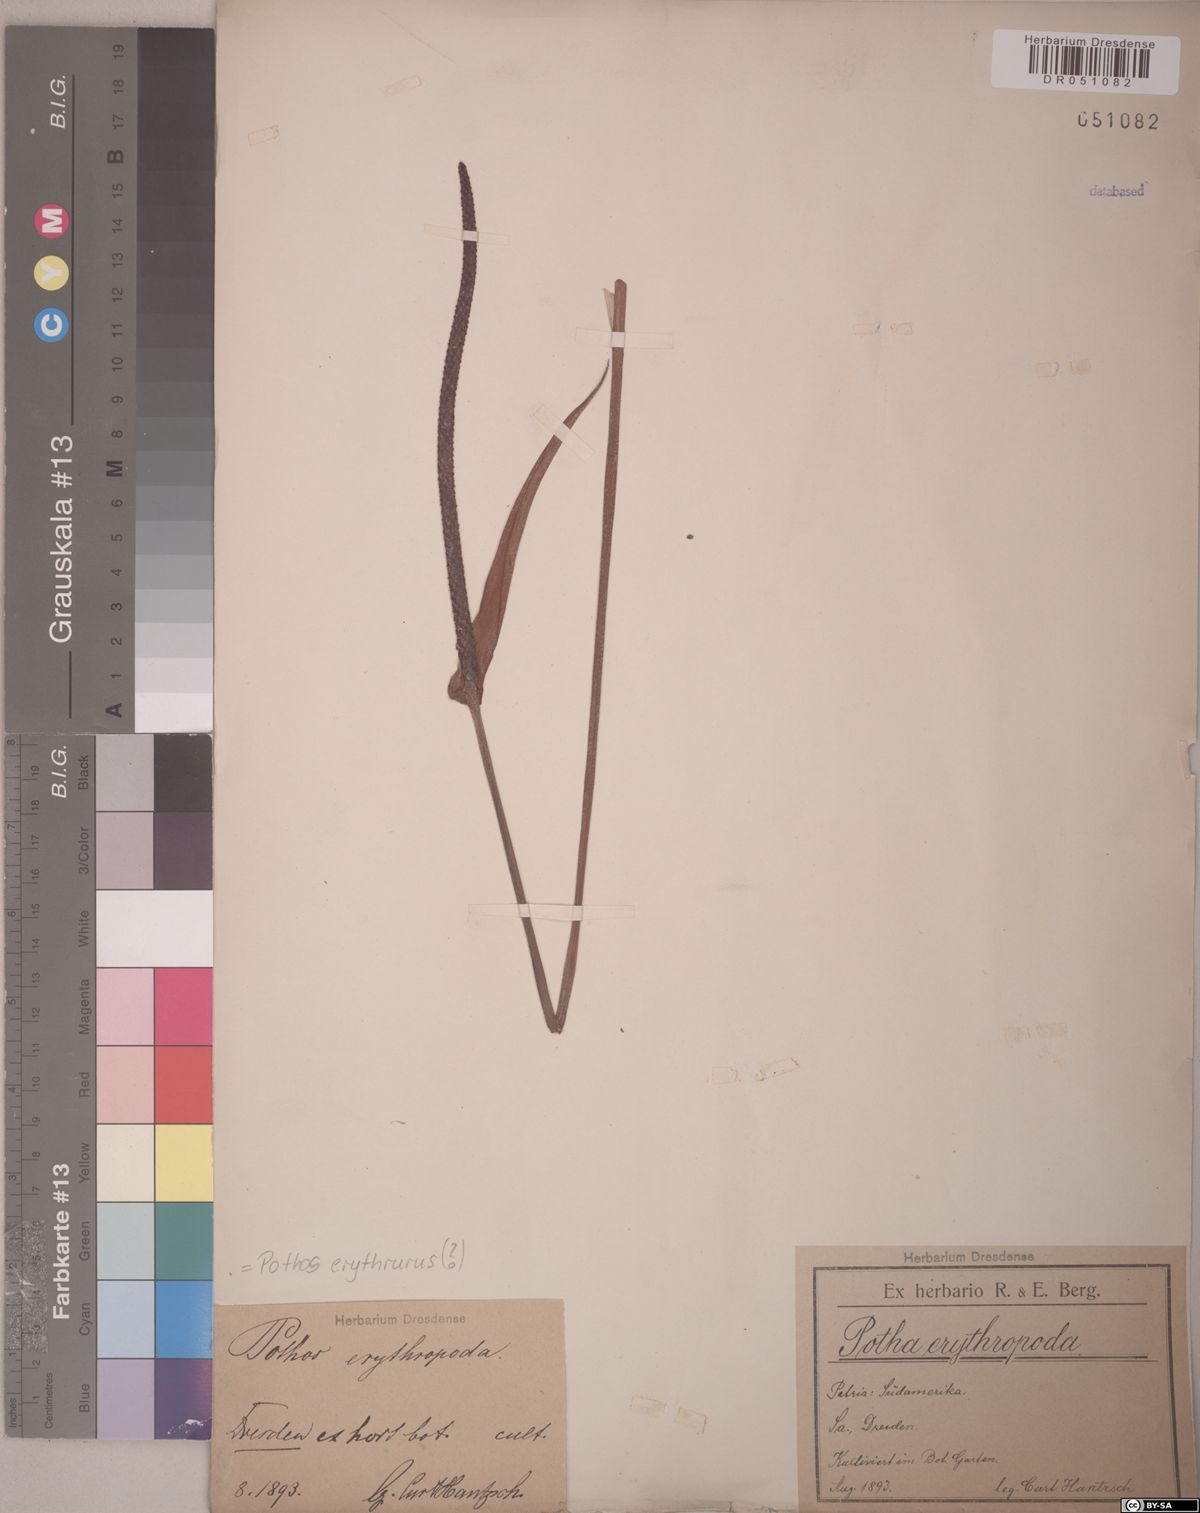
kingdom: Plantae
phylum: Tracheophyta
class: Liliopsida
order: Alismatales
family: Araceae
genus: Pothos
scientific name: Pothos erythrurus
